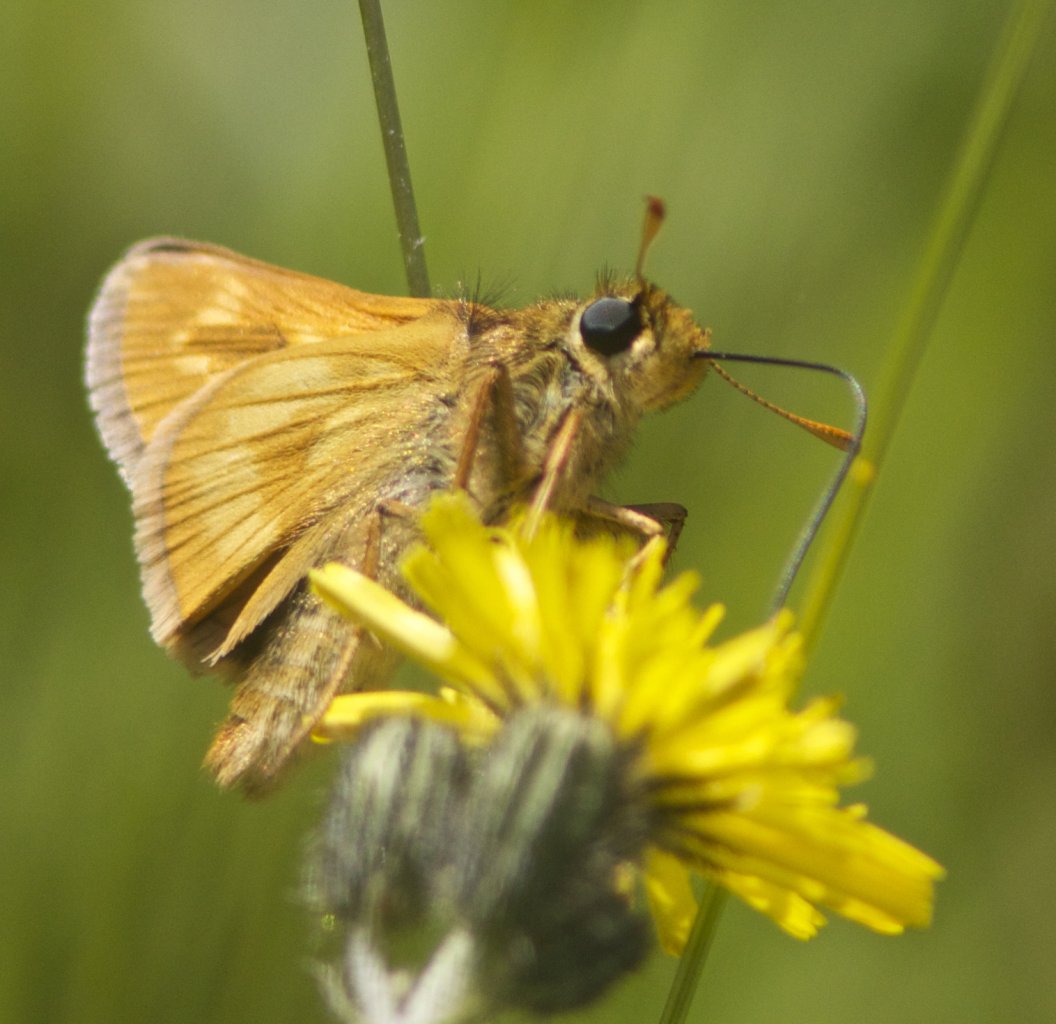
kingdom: Animalia
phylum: Arthropoda
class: Insecta
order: Lepidoptera
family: Hesperiidae
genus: Polites
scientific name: Polites
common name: Long Dash Skipper
